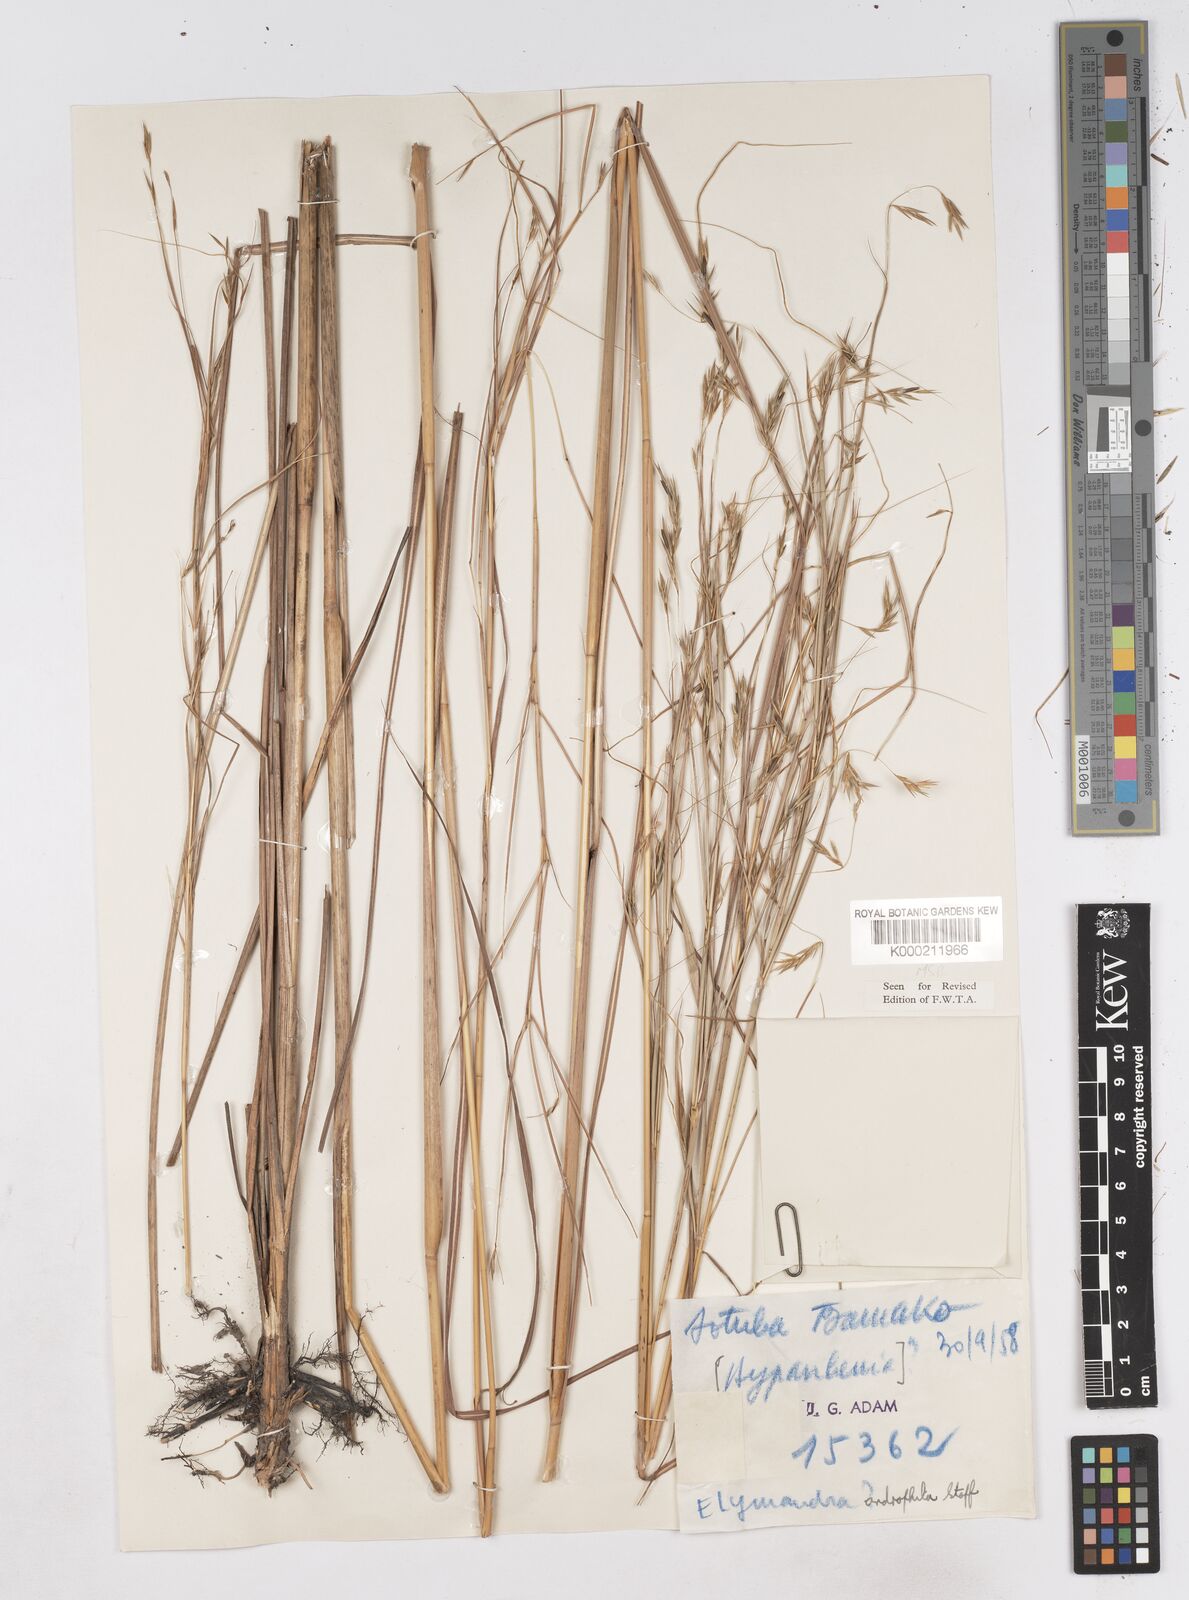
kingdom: Plantae
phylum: Tracheophyta
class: Liliopsida
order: Poales
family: Poaceae
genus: Elymandra
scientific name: Elymandra androphila
